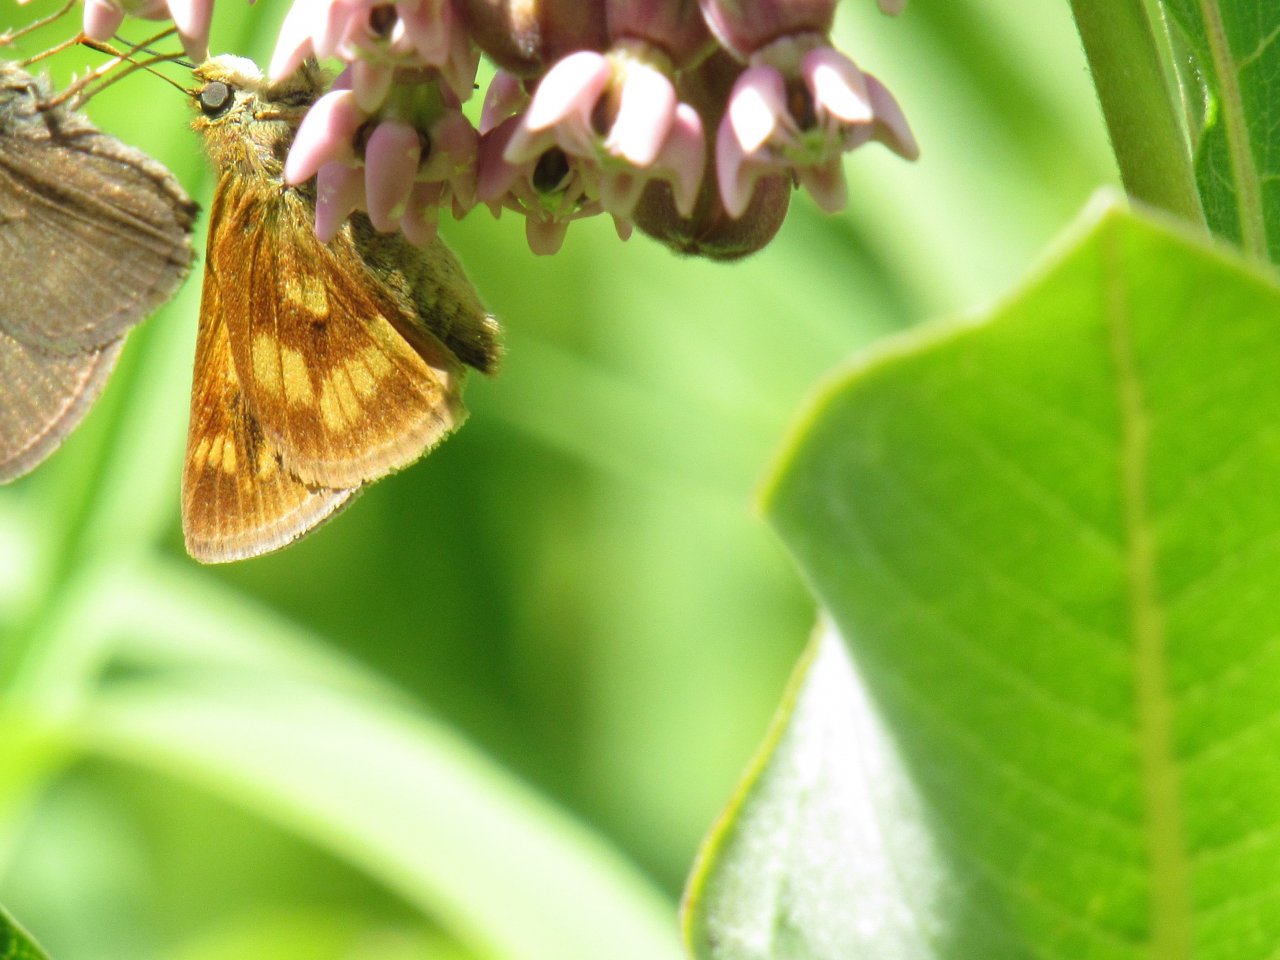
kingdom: Animalia
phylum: Arthropoda
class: Insecta
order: Lepidoptera
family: Hesperiidae
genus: Polites
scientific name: Polites
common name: Long Dash Skipper
